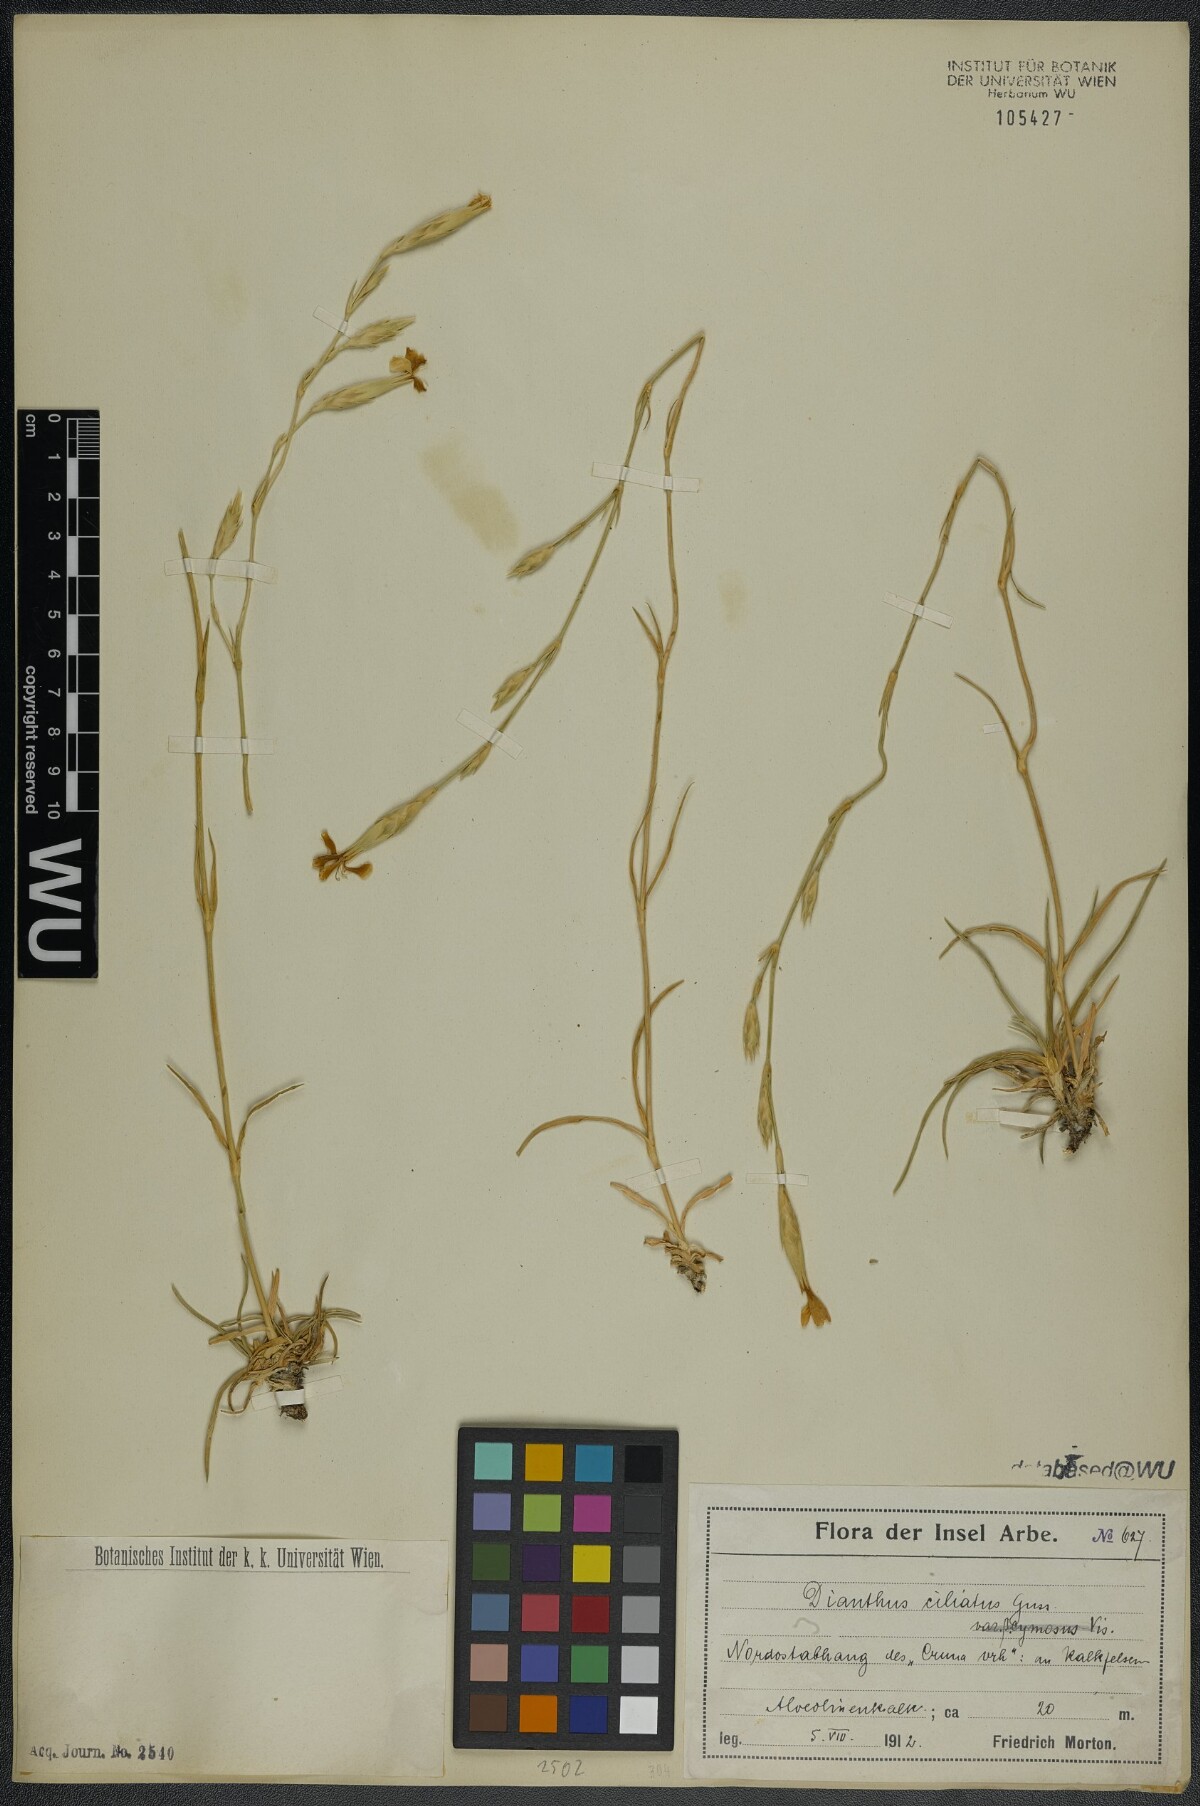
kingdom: Plantae
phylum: Tracheophyta
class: Magnoliopsida
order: Caryophyllales
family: Caryophyllaceae
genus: Dianthus
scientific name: Dianthus ciliatus
